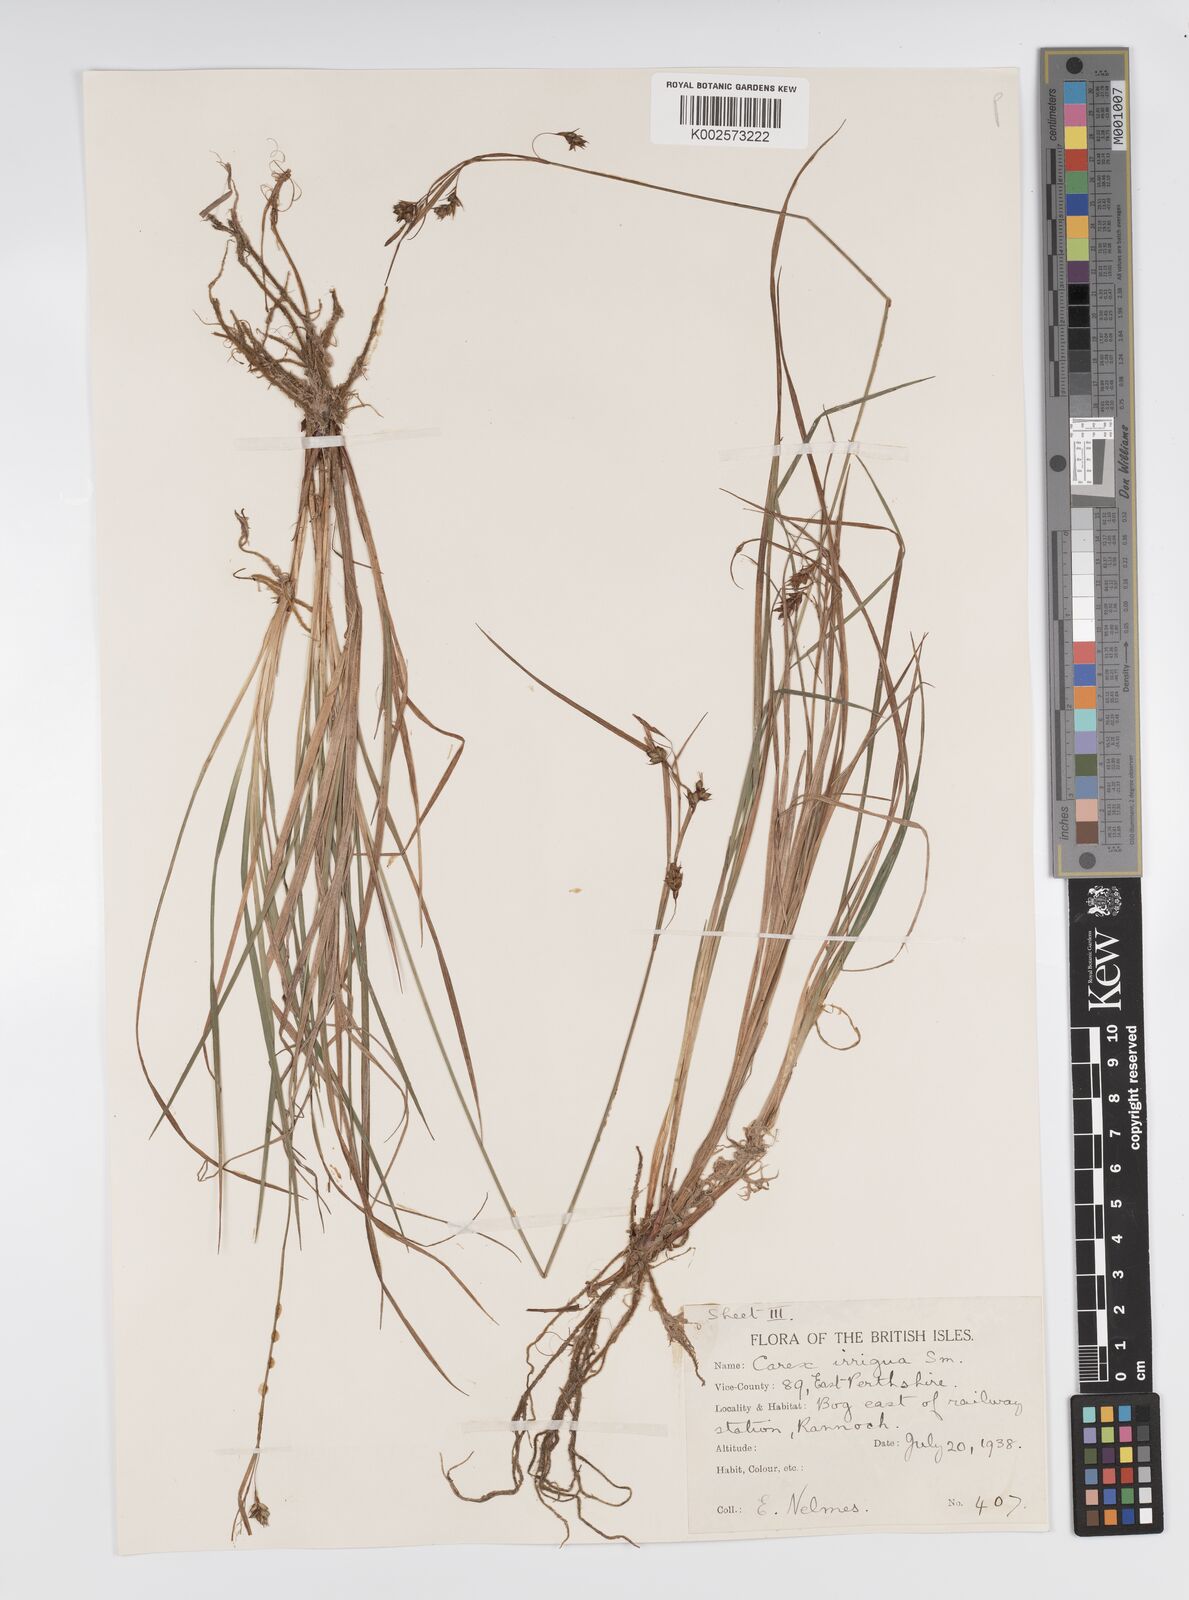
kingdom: Plantae
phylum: Tracheophyta
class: Liliopsida
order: Poales
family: Cyperaceae
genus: Carex
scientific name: Carex magellanica
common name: Bog sedge
